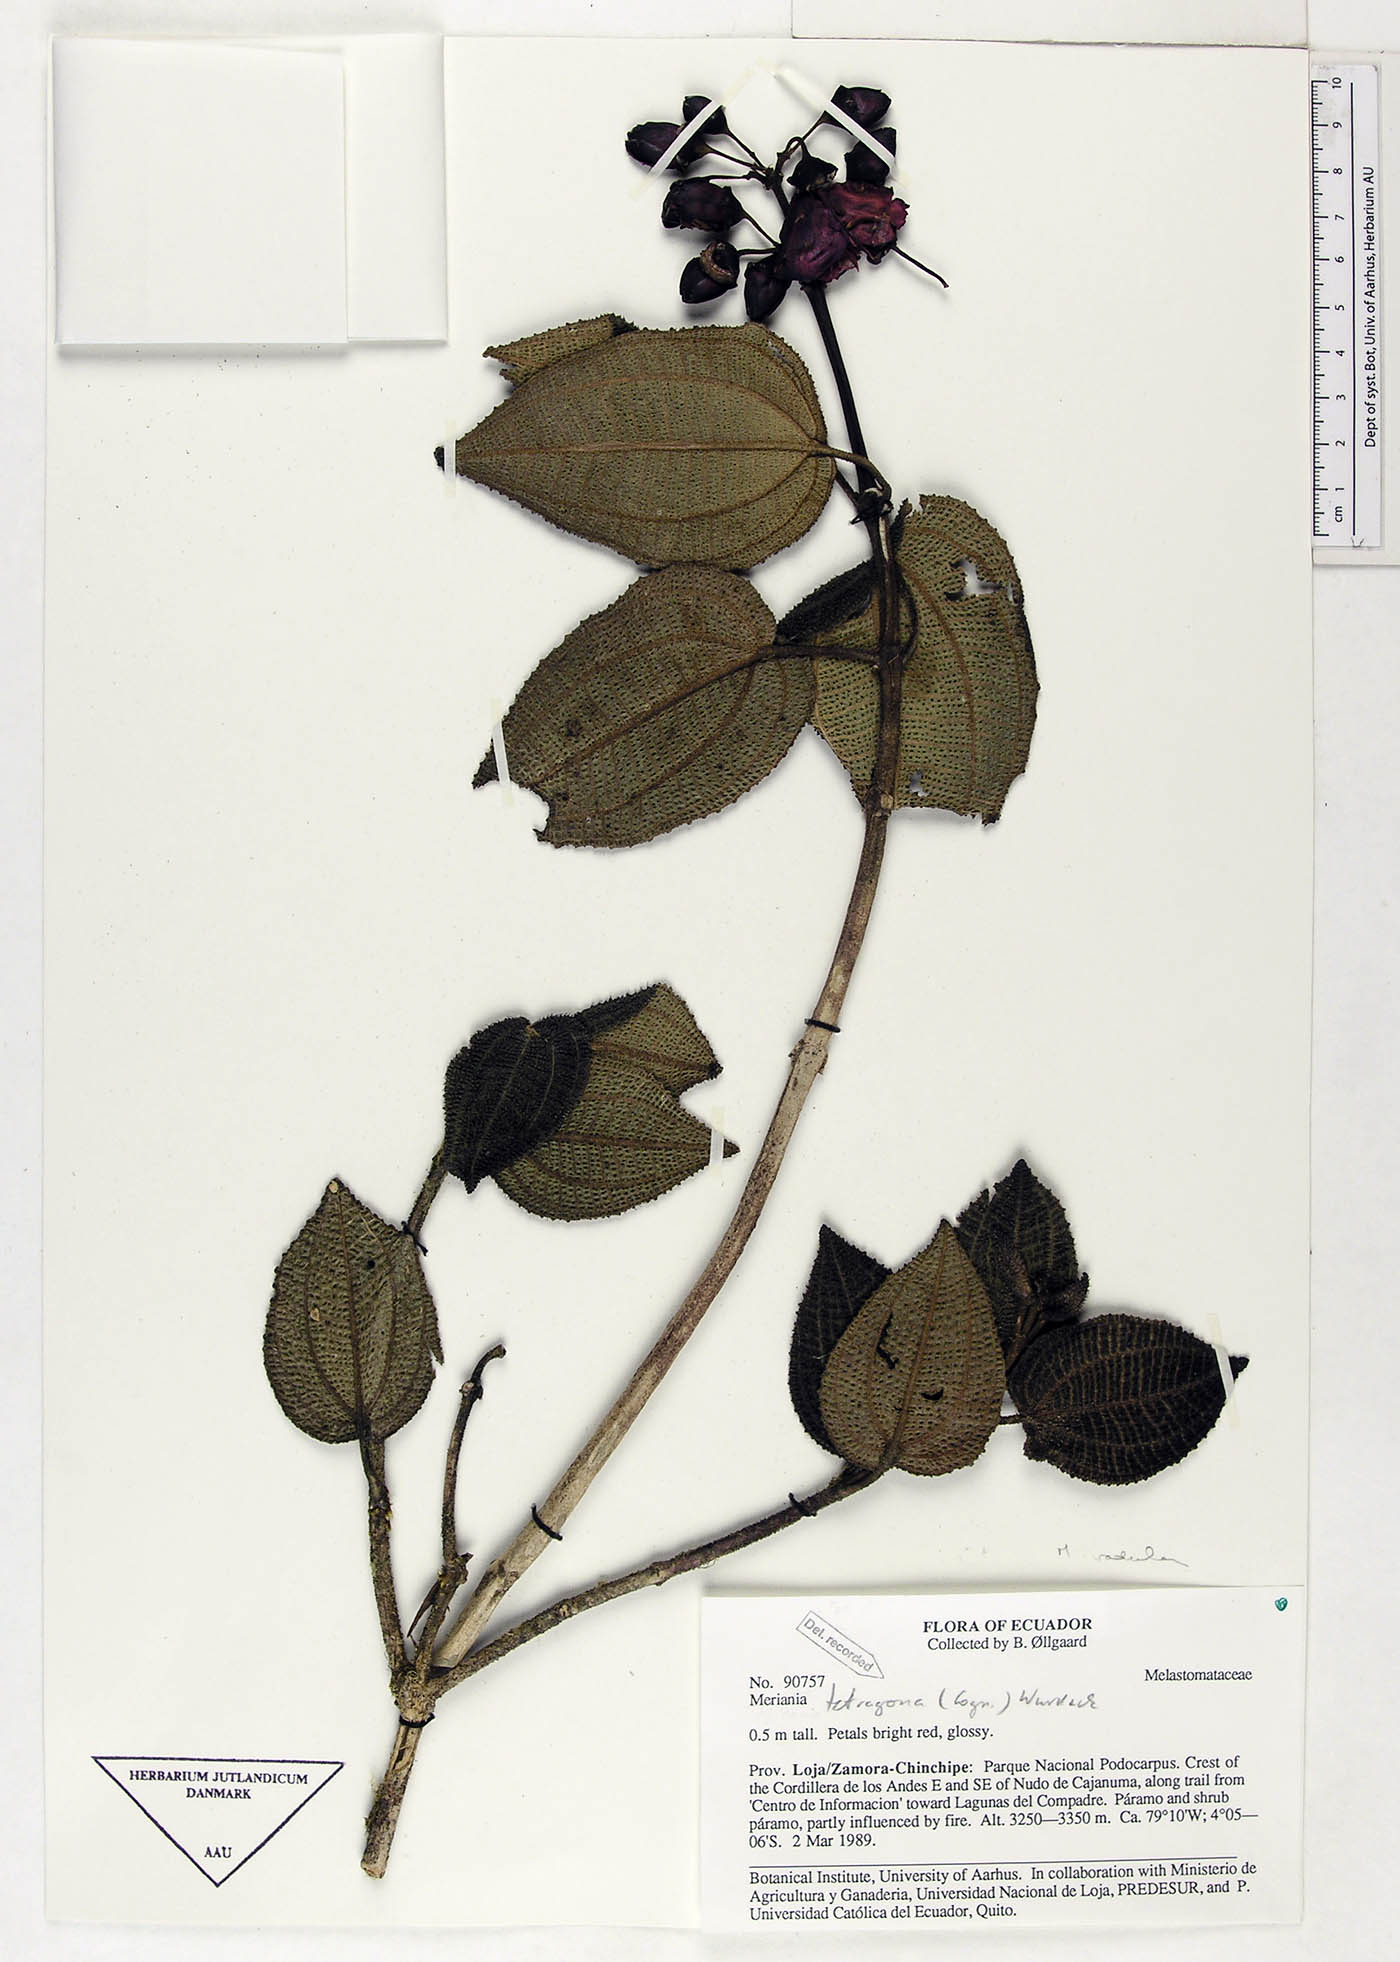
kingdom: Plantae
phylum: Tracheophyta
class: Magnoliopsida
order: Myrtales
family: Melastomataceae
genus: Miconia
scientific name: Miconia tetragona
